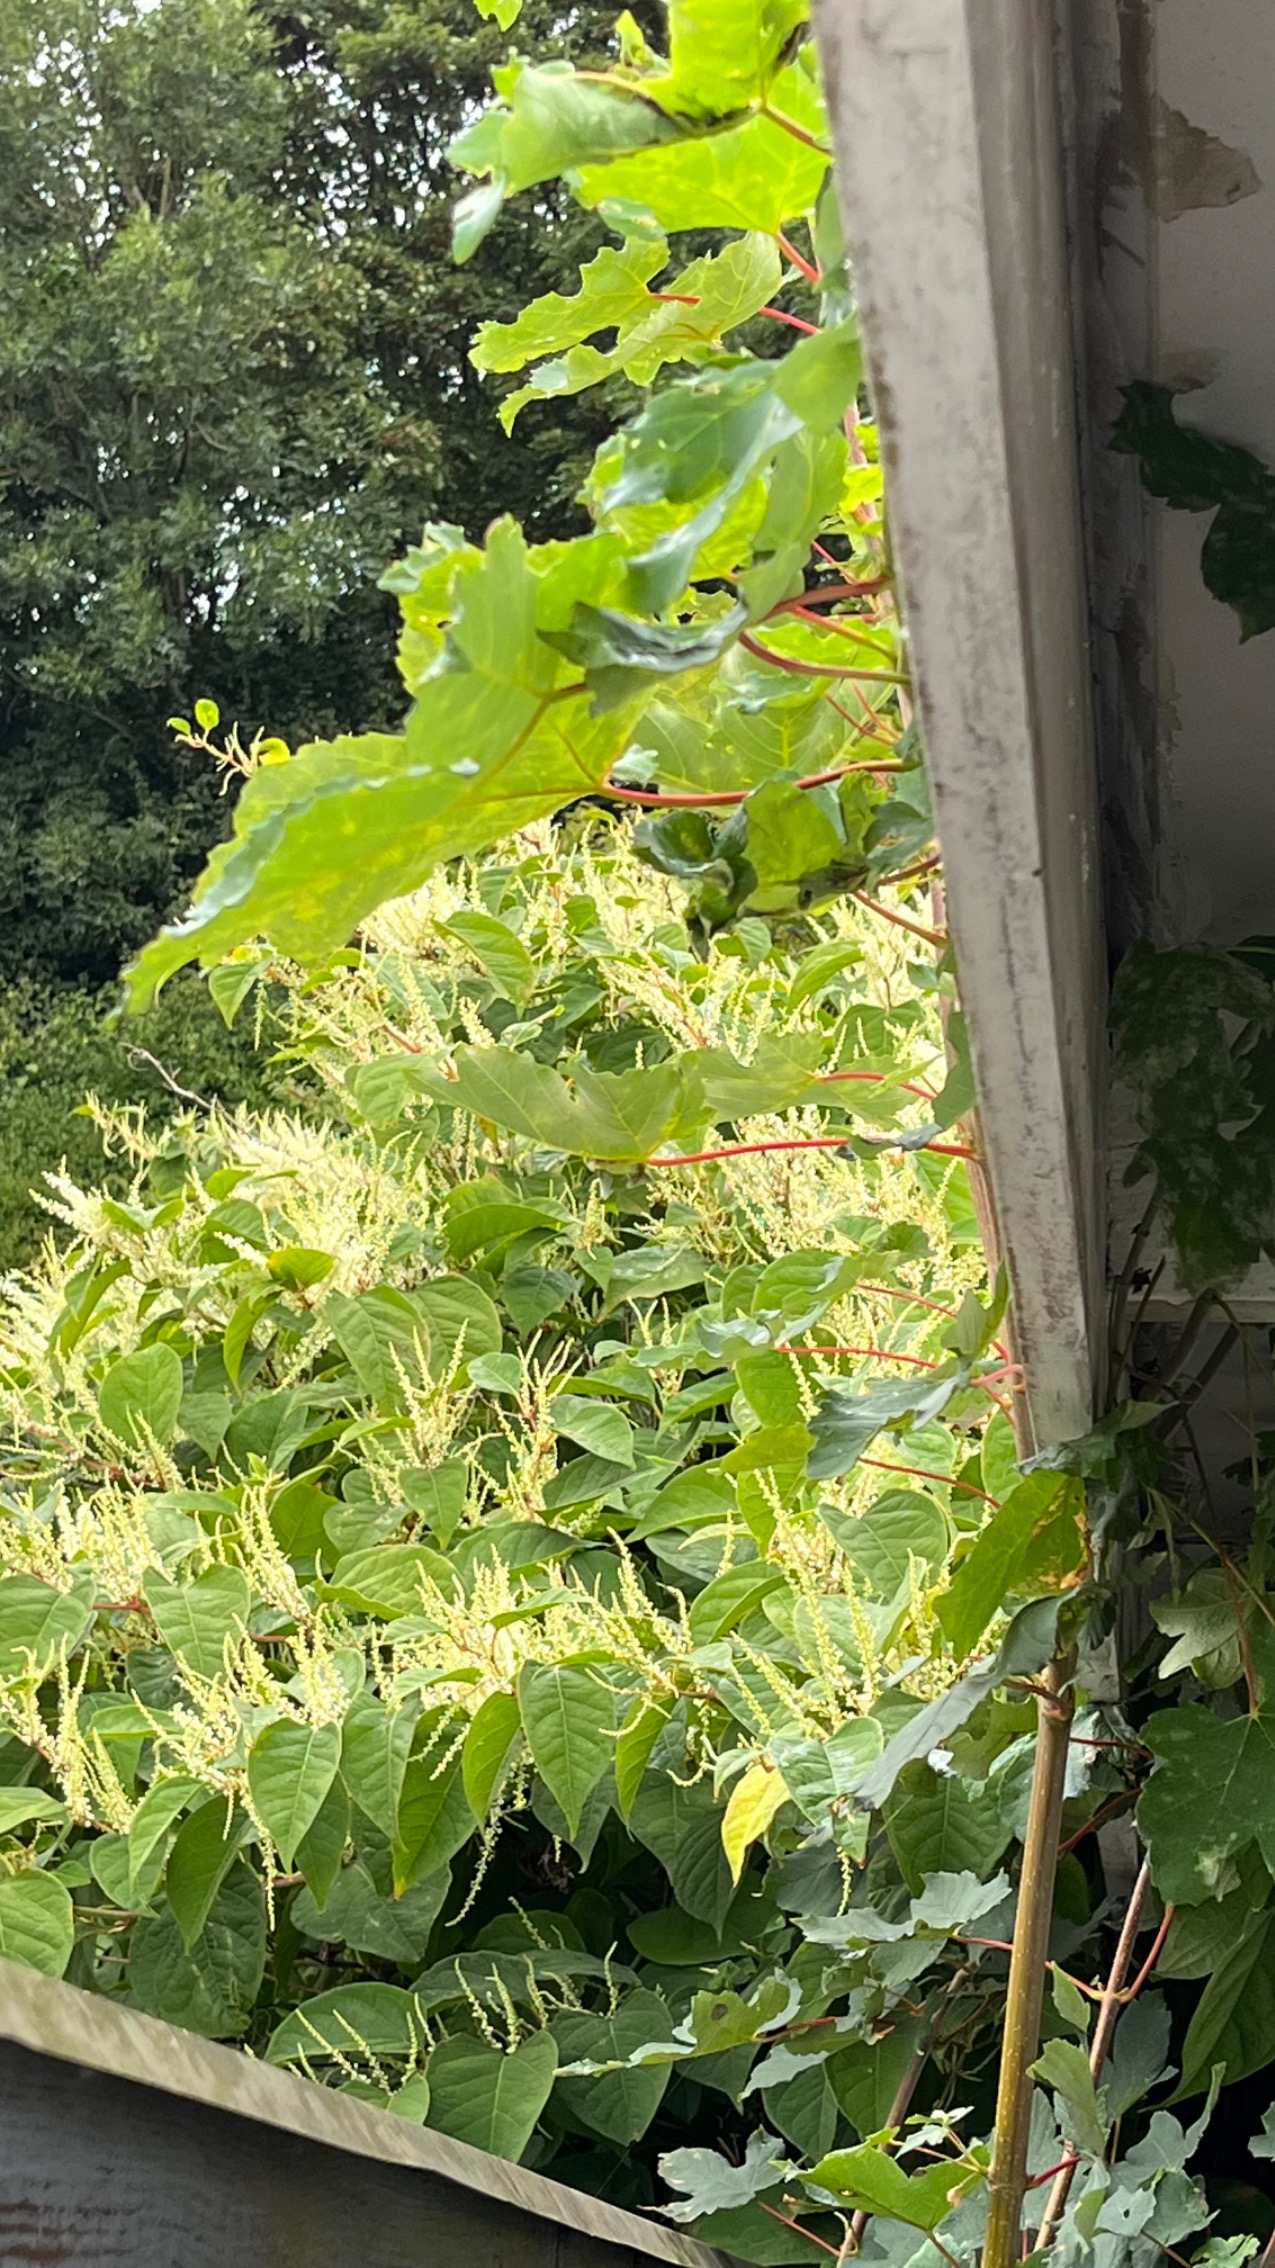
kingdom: Plantae
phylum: Tracheophyta
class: Magnoliopsida
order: Caryophyllales
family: Polygonaceae
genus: Reynoutria
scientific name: Reynoutria japonica
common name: Japan-pileurt
